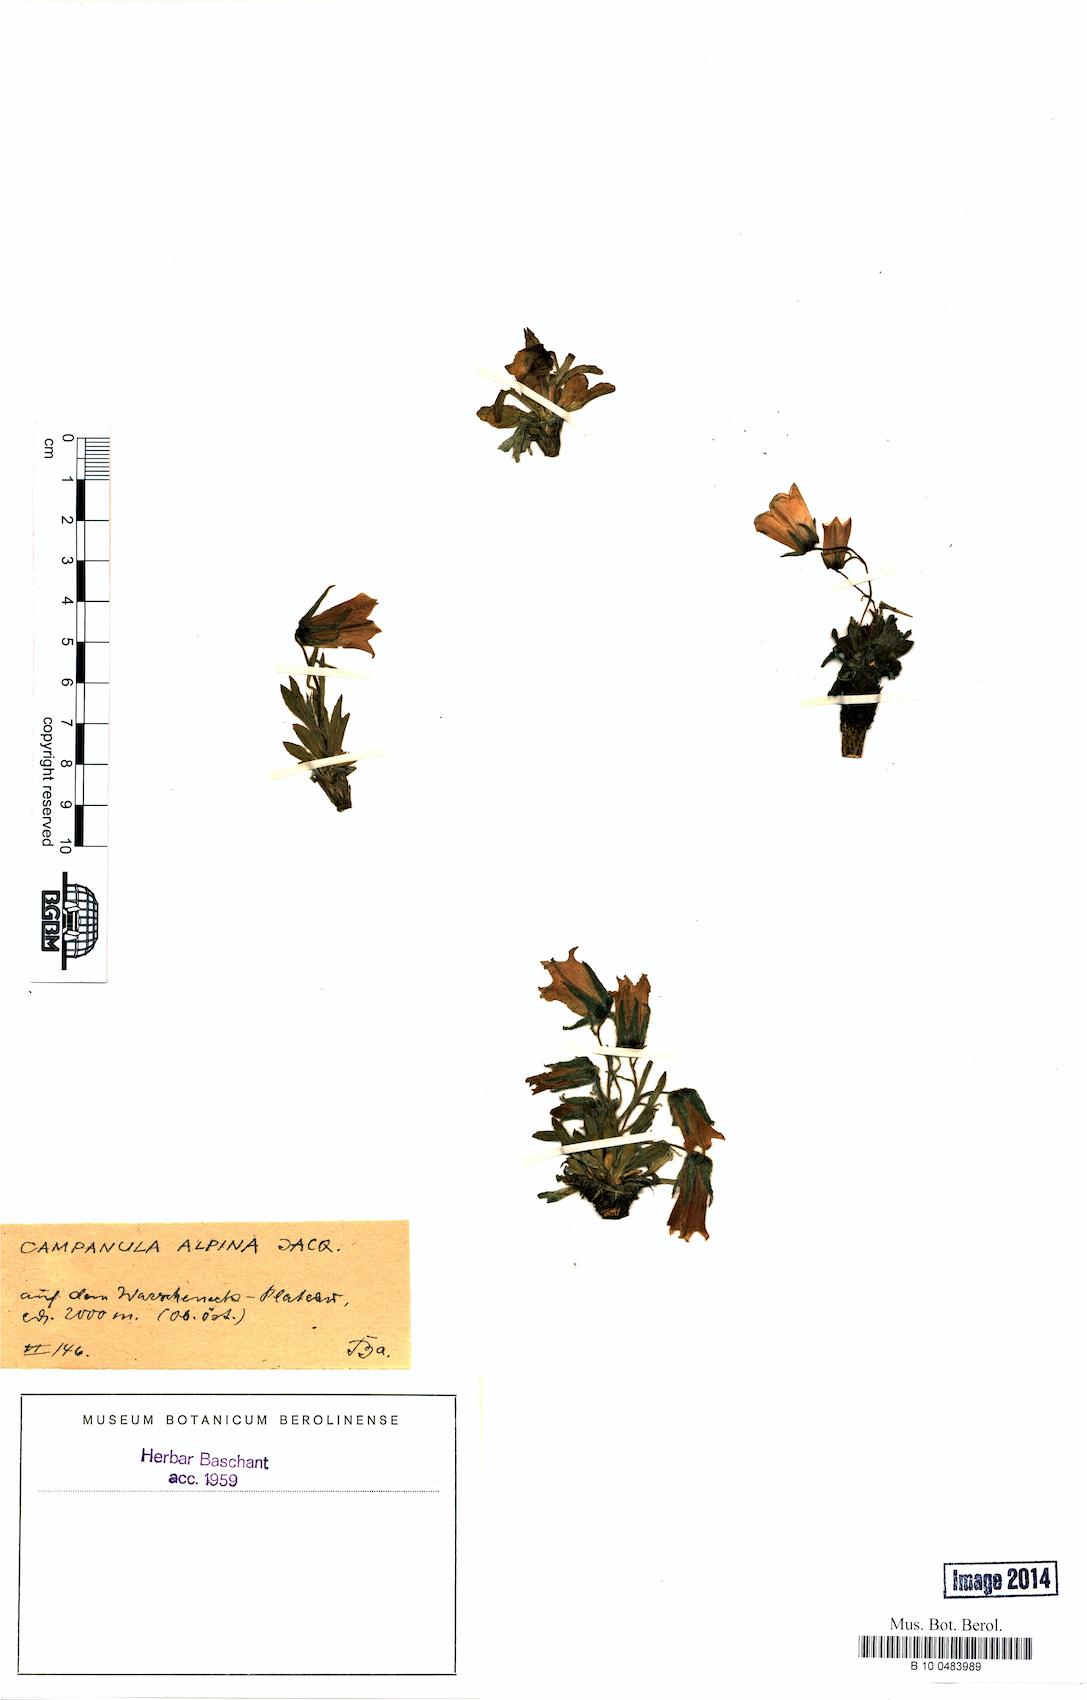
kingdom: Plantae
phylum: Tracheophyta
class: Magnoliopsida
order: Asterales
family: Campanulaceae
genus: Campanula
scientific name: Campanula alpina
